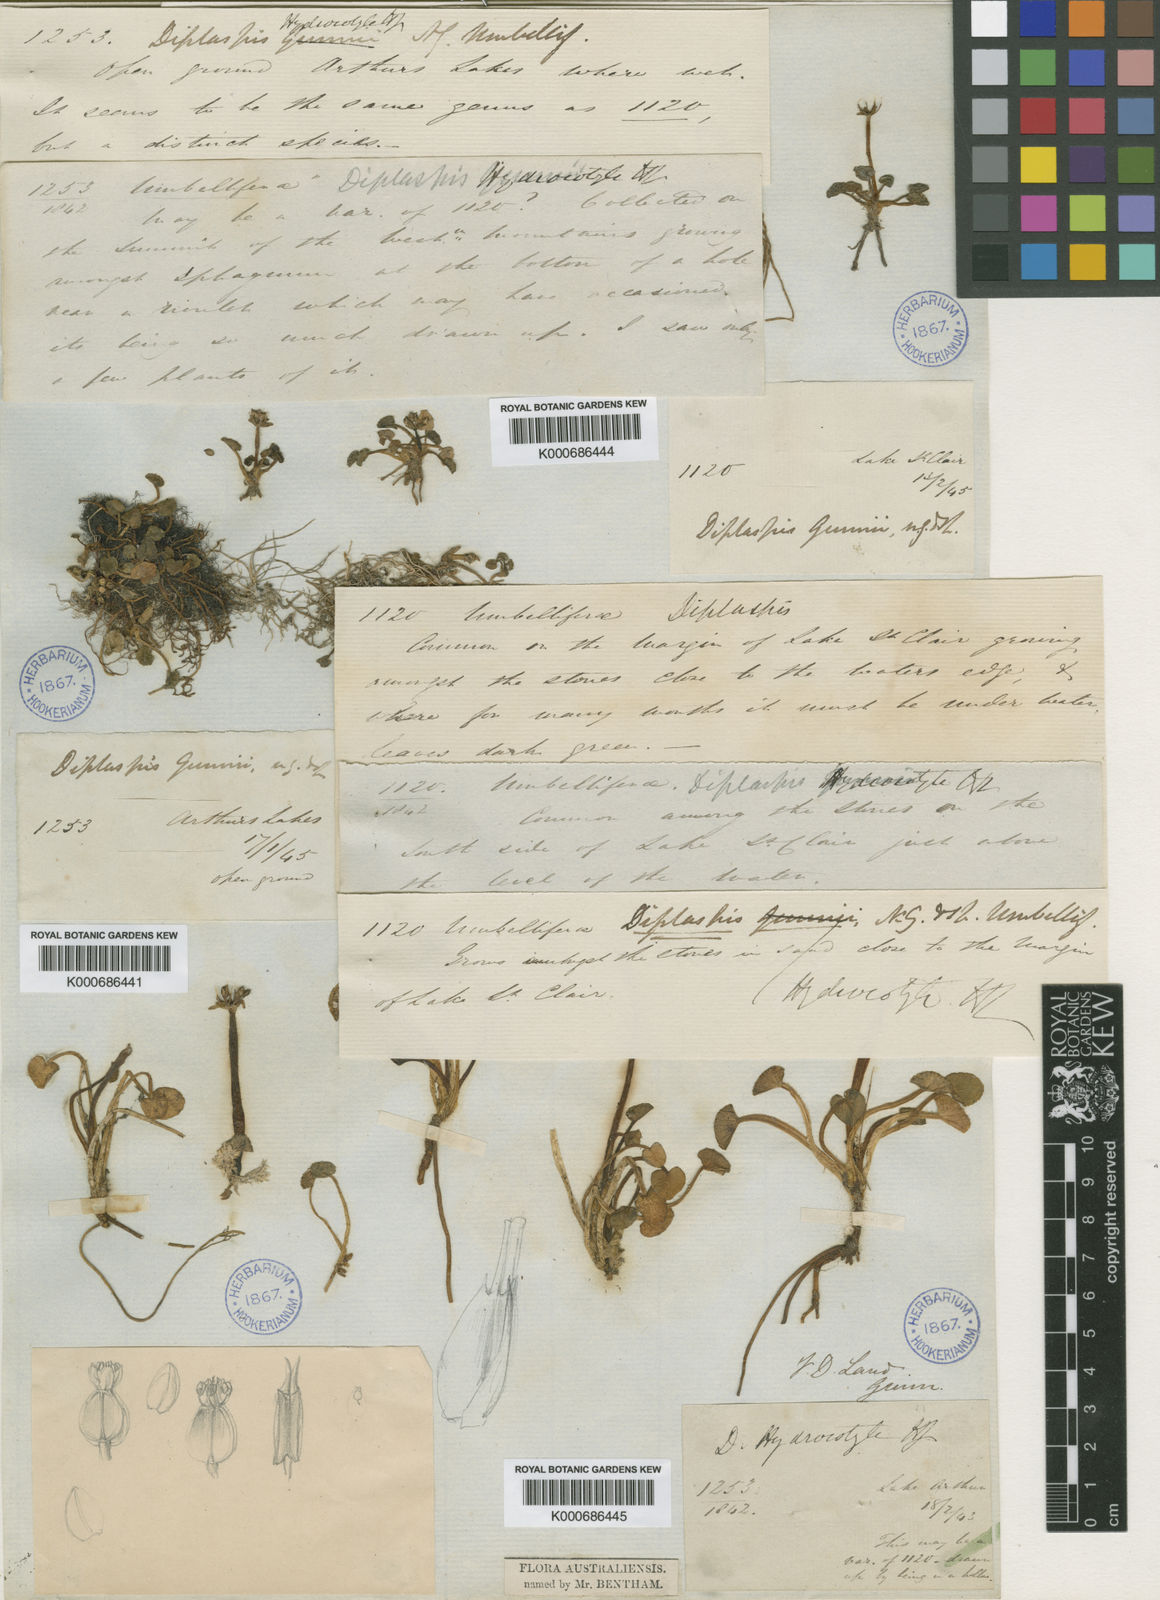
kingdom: Plantae
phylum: Tracheophyta
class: Magnoliopsida
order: Apiales
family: Apiaceae
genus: Diplaspis
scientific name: Diplaspis
